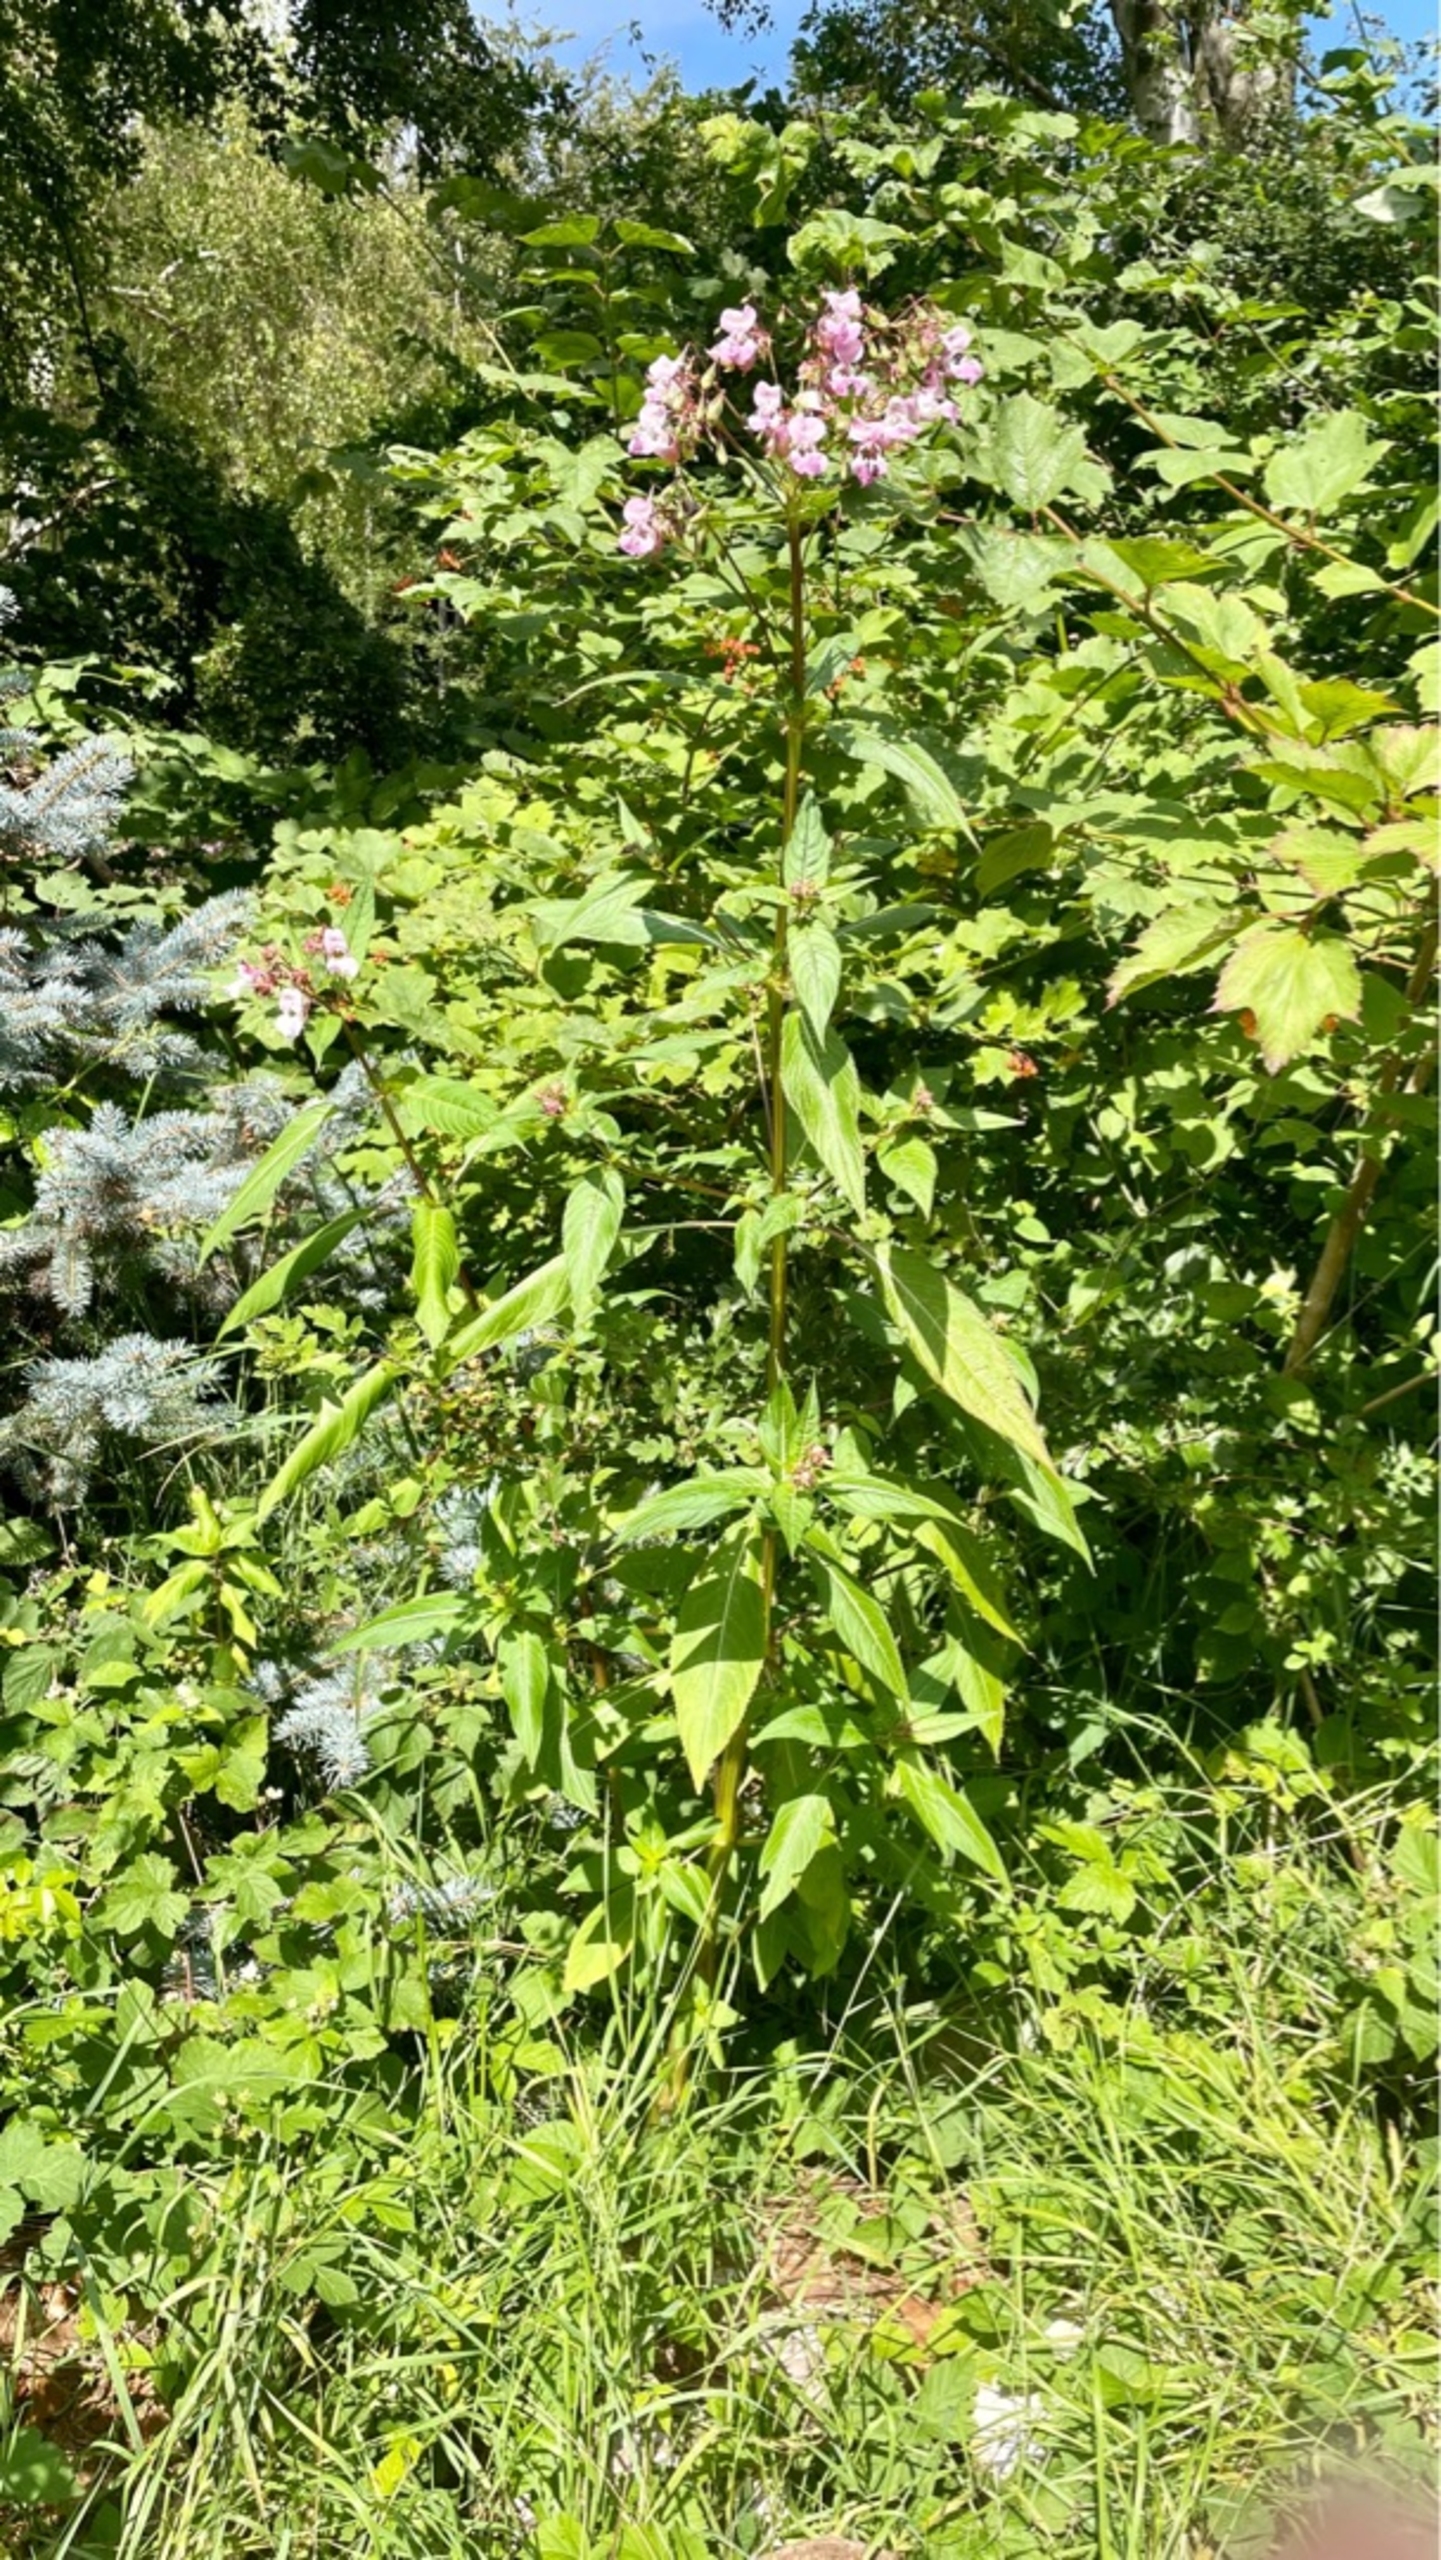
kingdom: Plantae
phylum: Tracheophyta
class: Magnoliopsida
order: Ericales
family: Balsaminaceae
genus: Impatiens
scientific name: Impatiens glandulifera
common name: Kæmpe-balsamin
